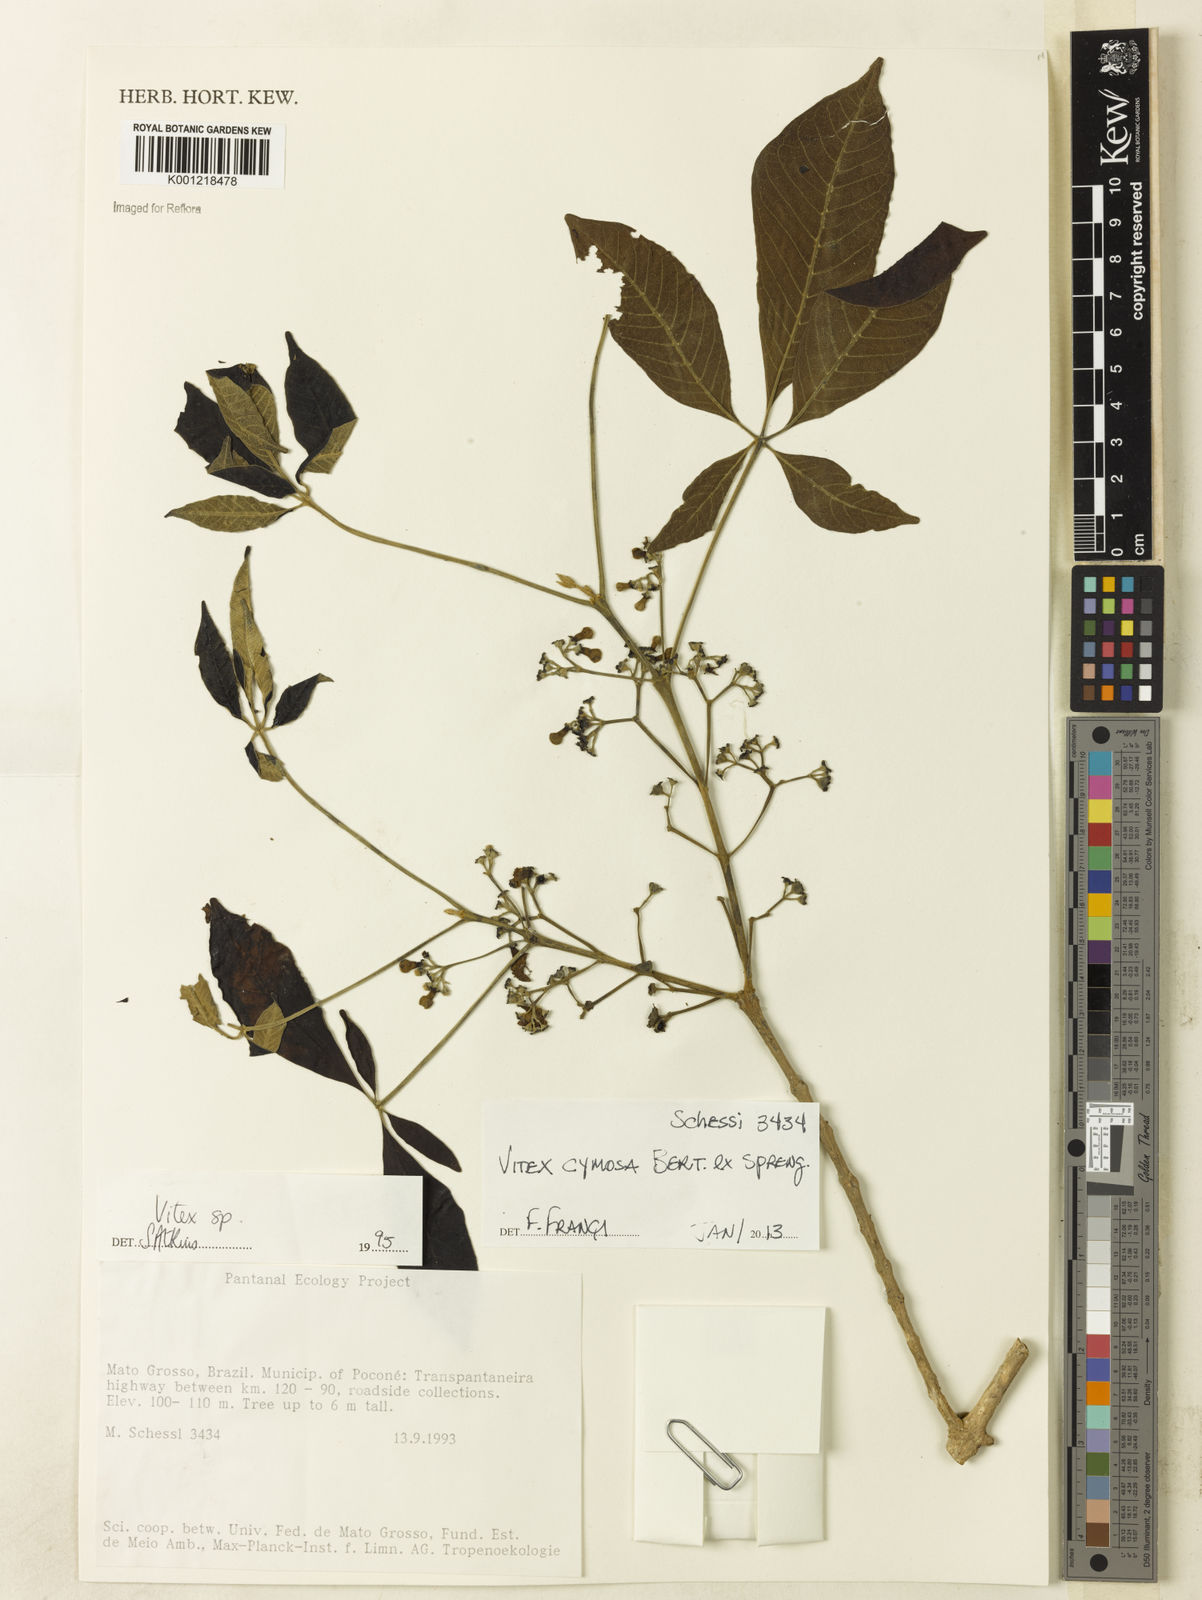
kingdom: Plantae
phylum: Tracheophyta
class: Magnoliopsida
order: Lamiales
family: Lamiaceae
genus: Vitex
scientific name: Vitex cymosa
